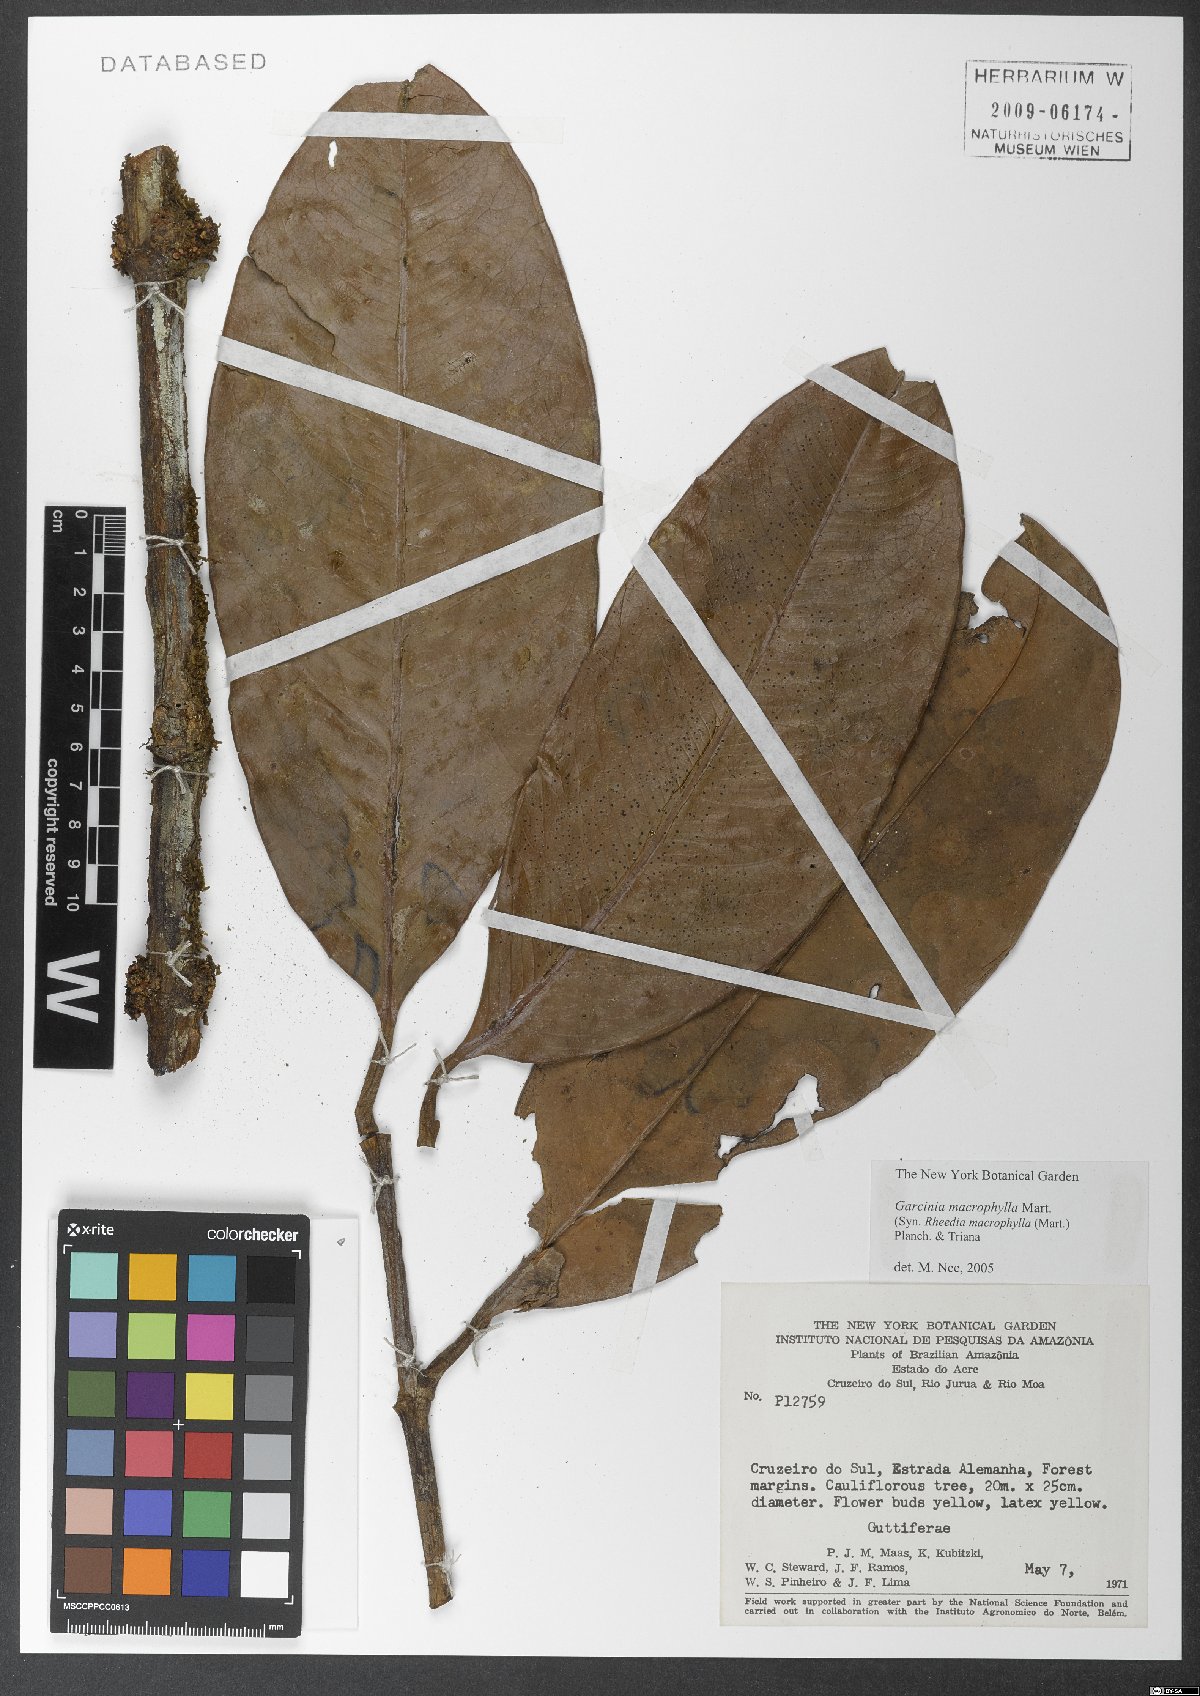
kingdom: Plantae
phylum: Tracheophyta
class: Magnoliopsida
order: Malpighiales
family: Clusiaceae
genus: Garcinia
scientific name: Garcinia macrophylla
